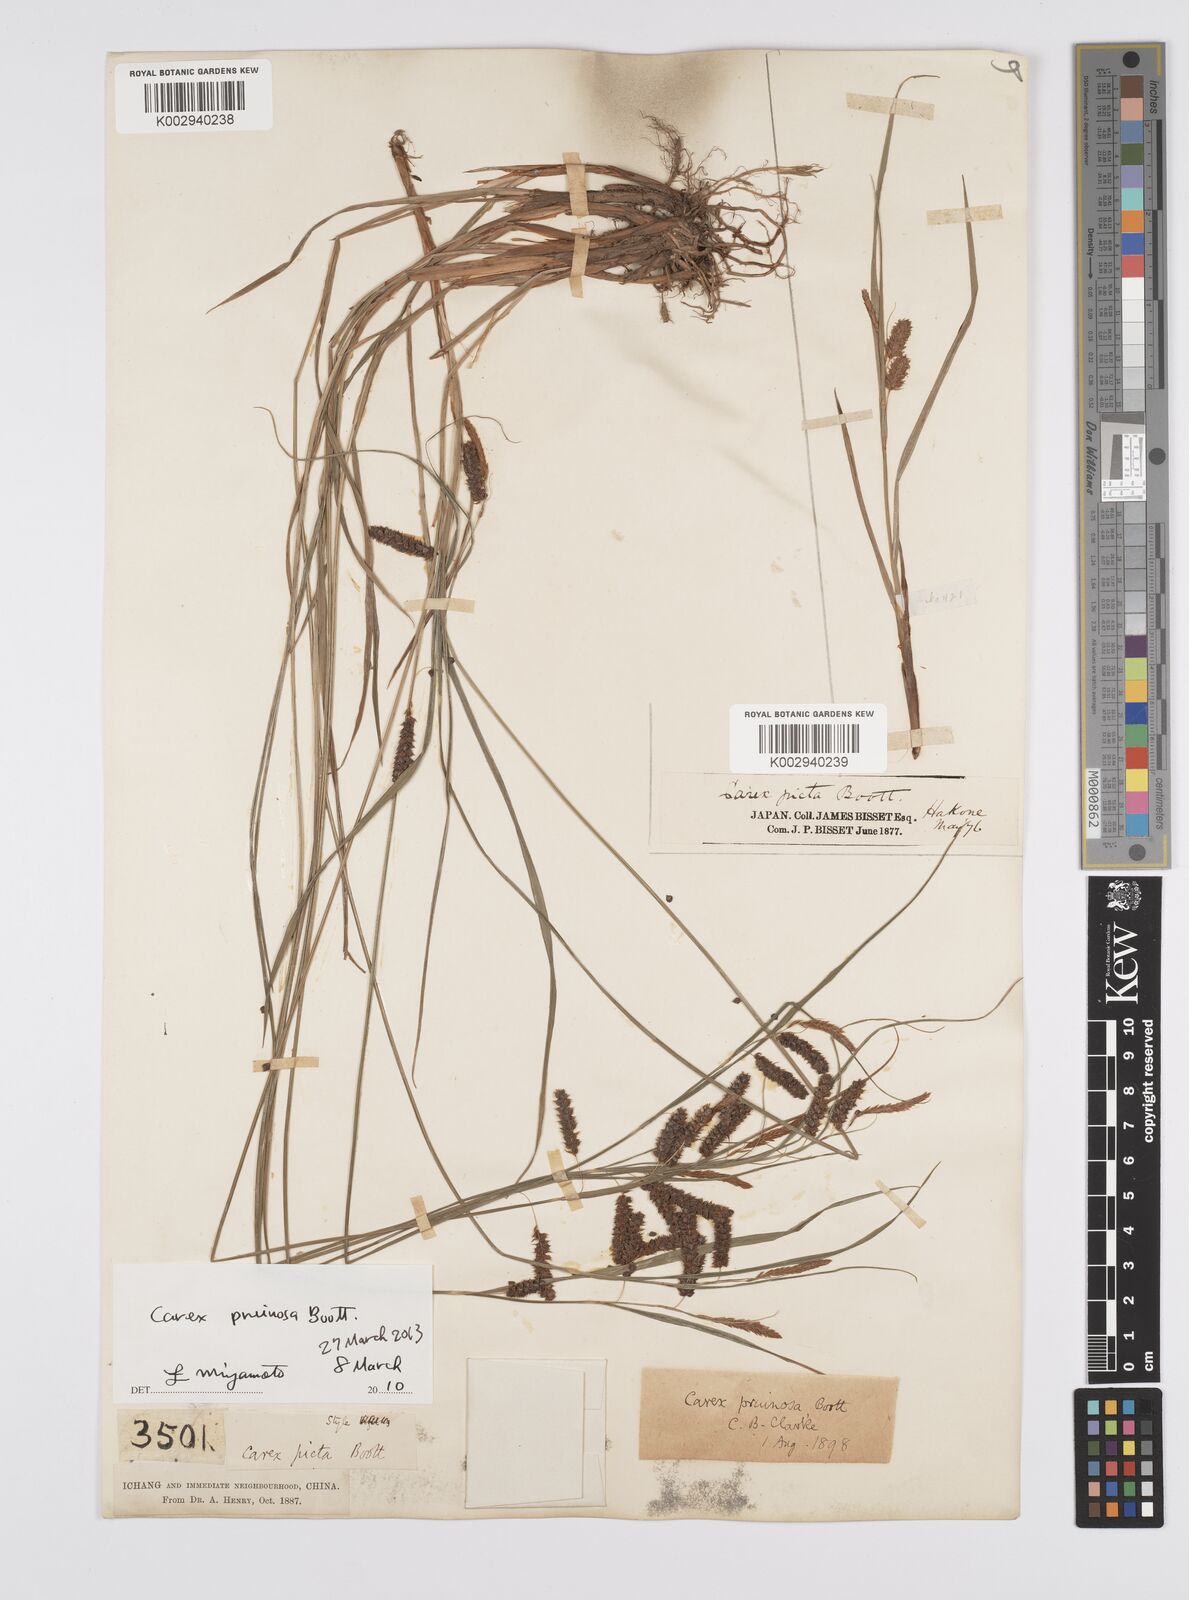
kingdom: Plantae
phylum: Tracheophyta
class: Liliopsida
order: Poales
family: Cyperaceae
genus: Carex
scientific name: Carex pruinosa
